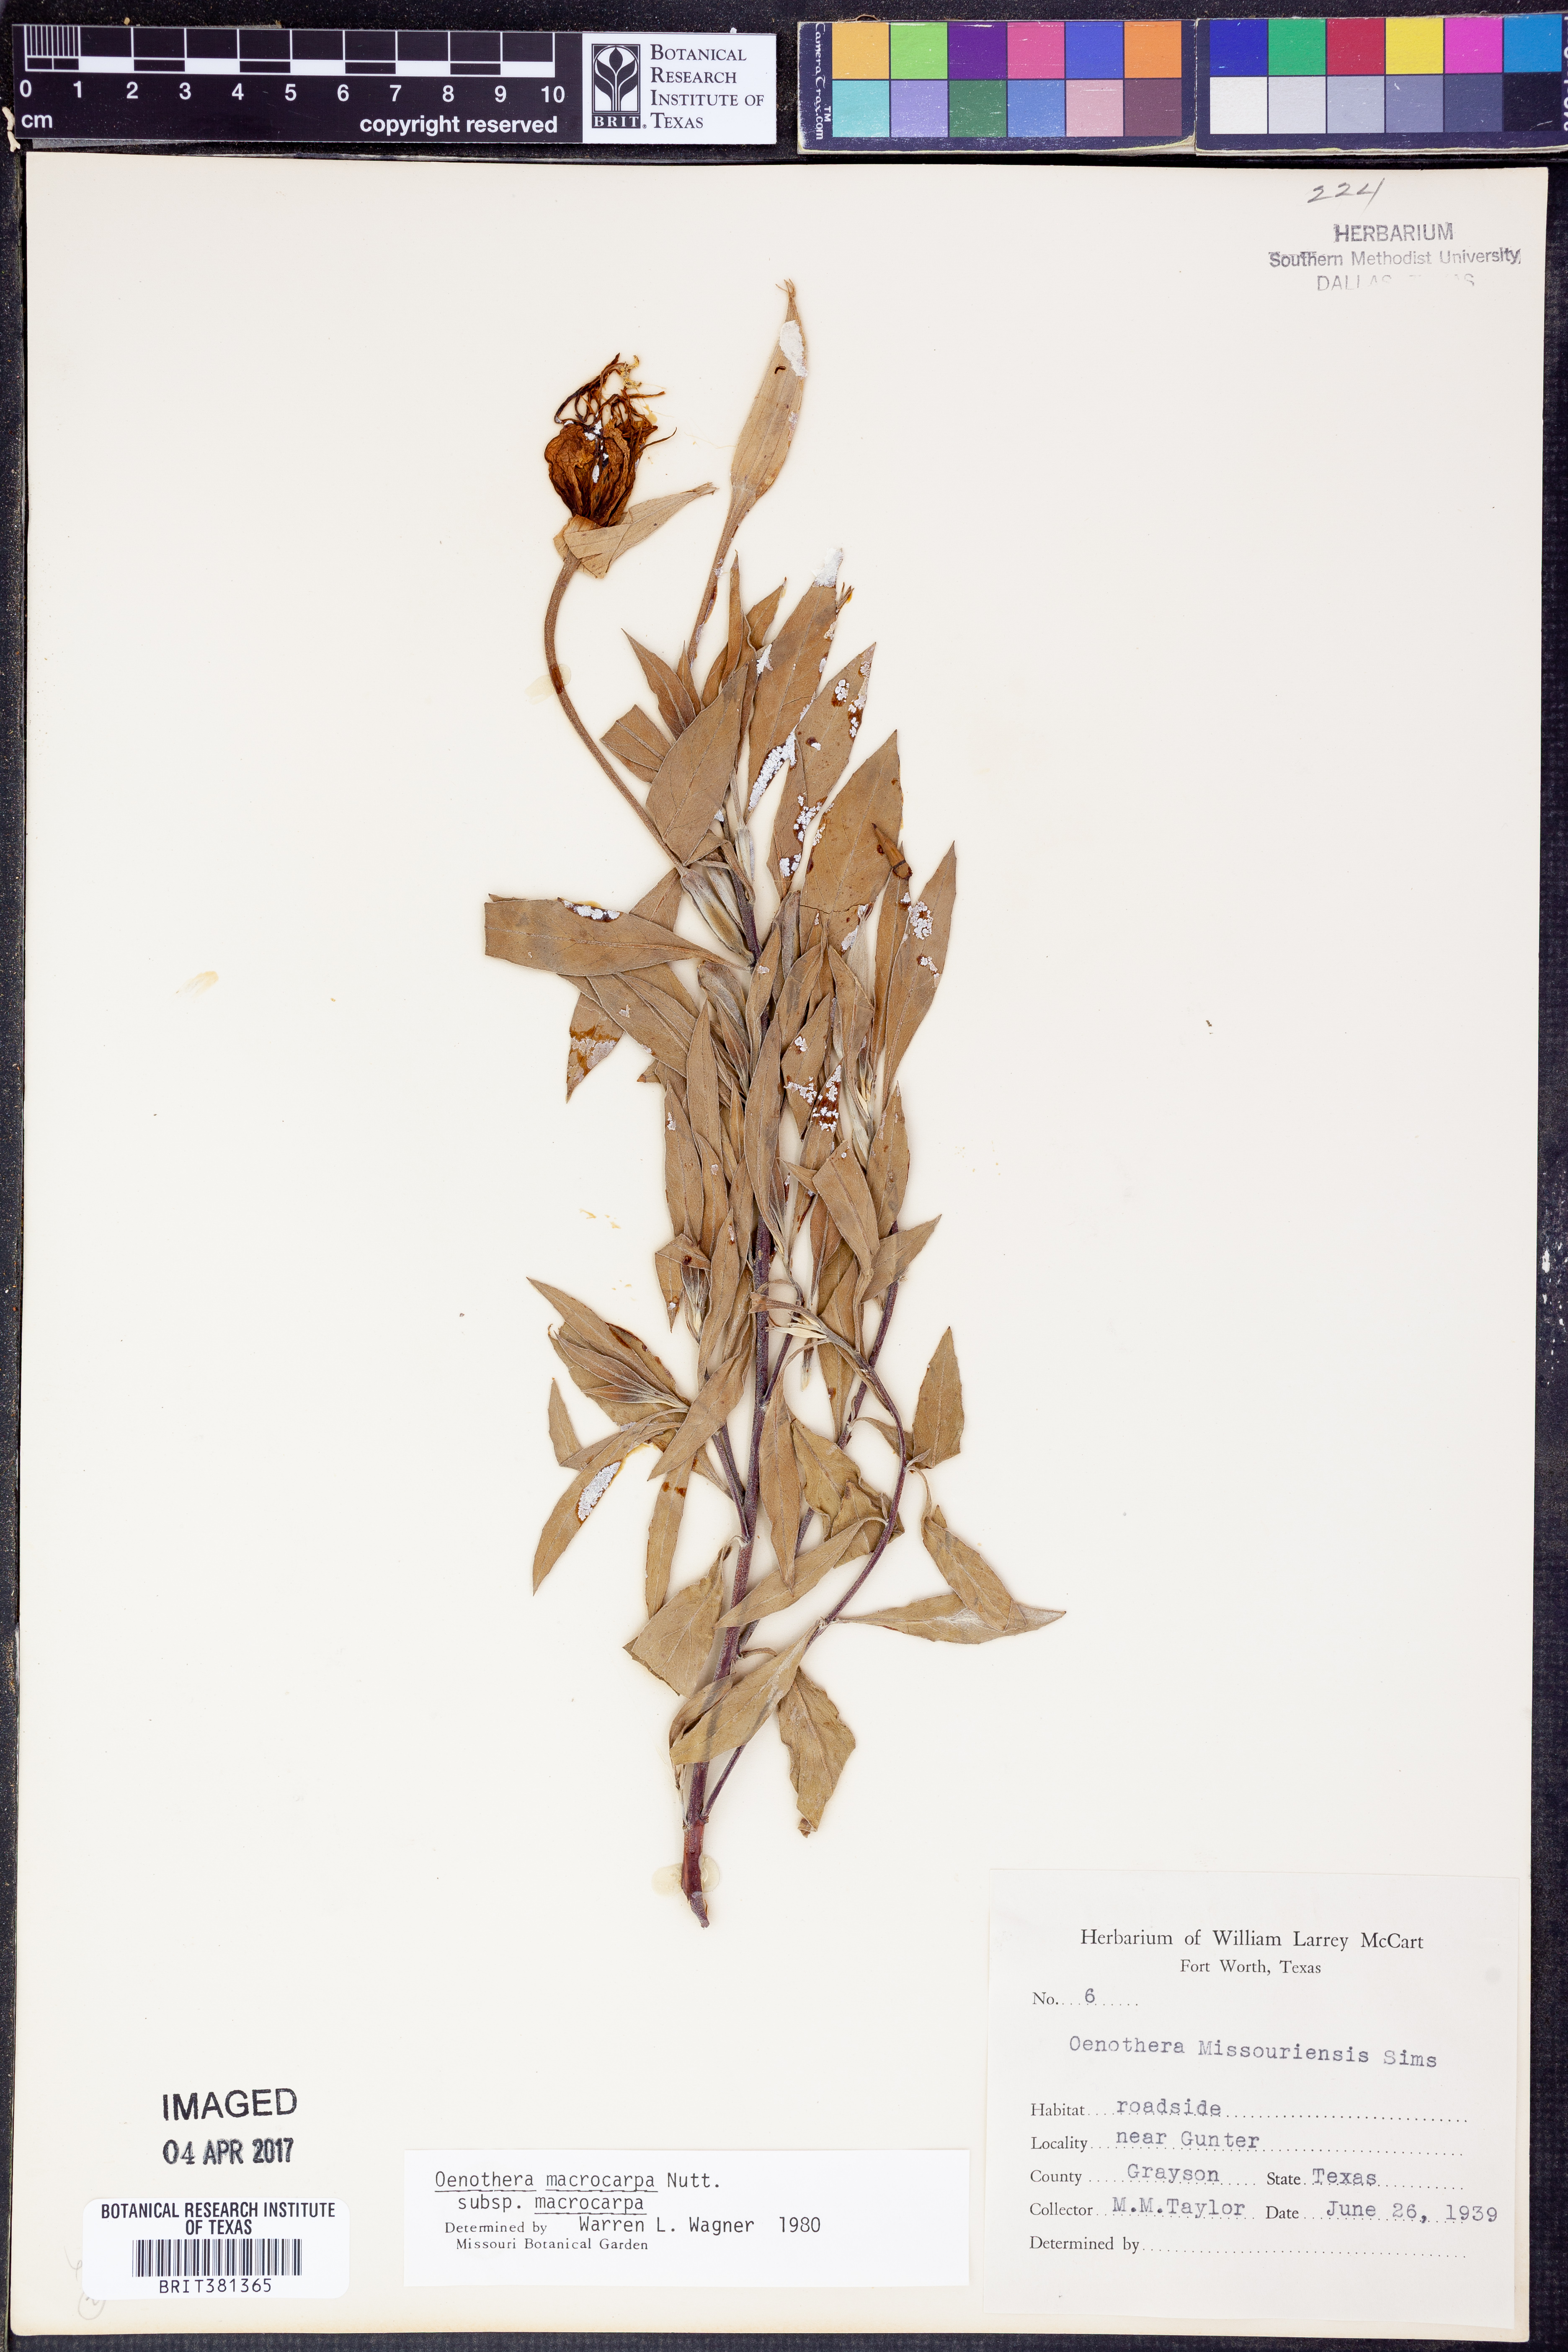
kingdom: Plantae
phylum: Tracheophyta
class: Magnoliopsida
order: Myrtales
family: Onagraceae
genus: Oenothera
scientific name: Oenothera macrocarpa
